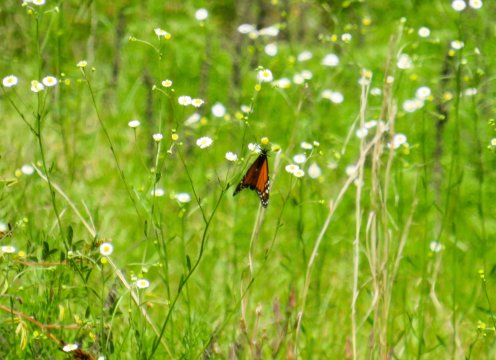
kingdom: Animalia
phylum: Arthropoda
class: Insecta
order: Lepidoptera
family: Nymphalidae
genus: Danaus
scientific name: Danaus plexippus
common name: Monarch
